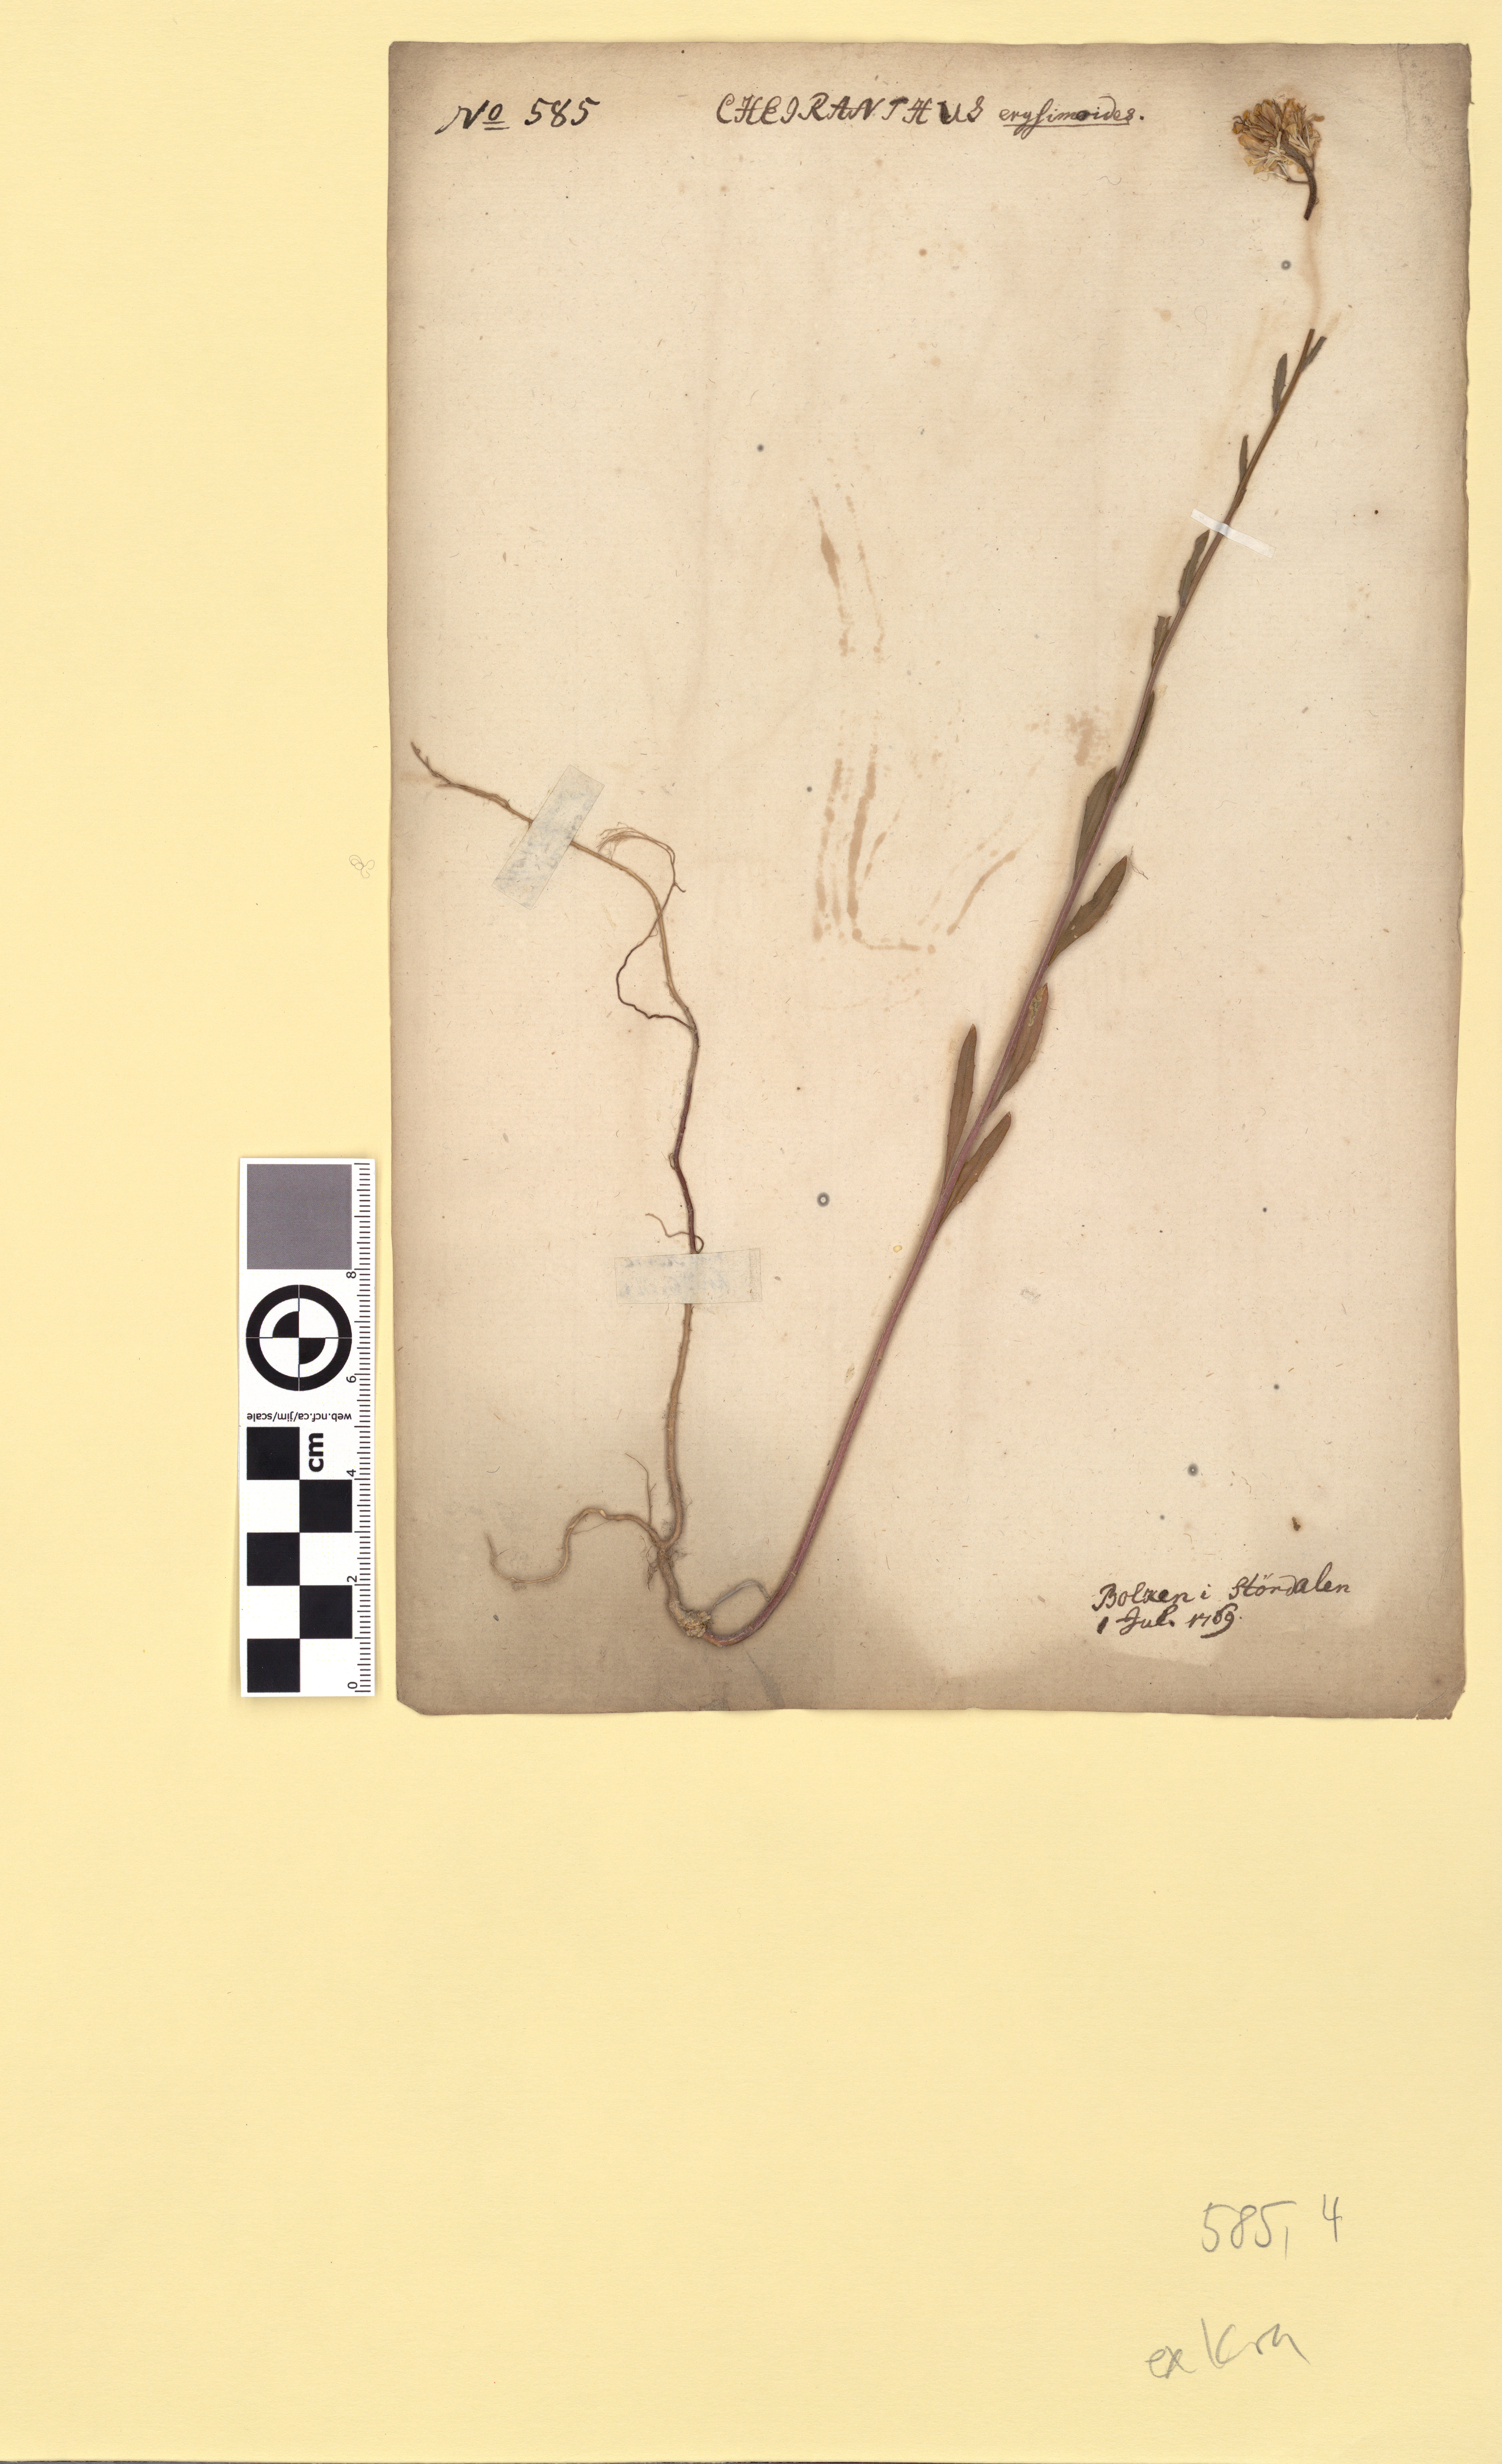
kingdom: Plantae
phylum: Tracheophyta
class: Magnoliopsida
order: Brassicales
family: Brassicaceae
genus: Erysimum
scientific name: Erysimum virgatum
